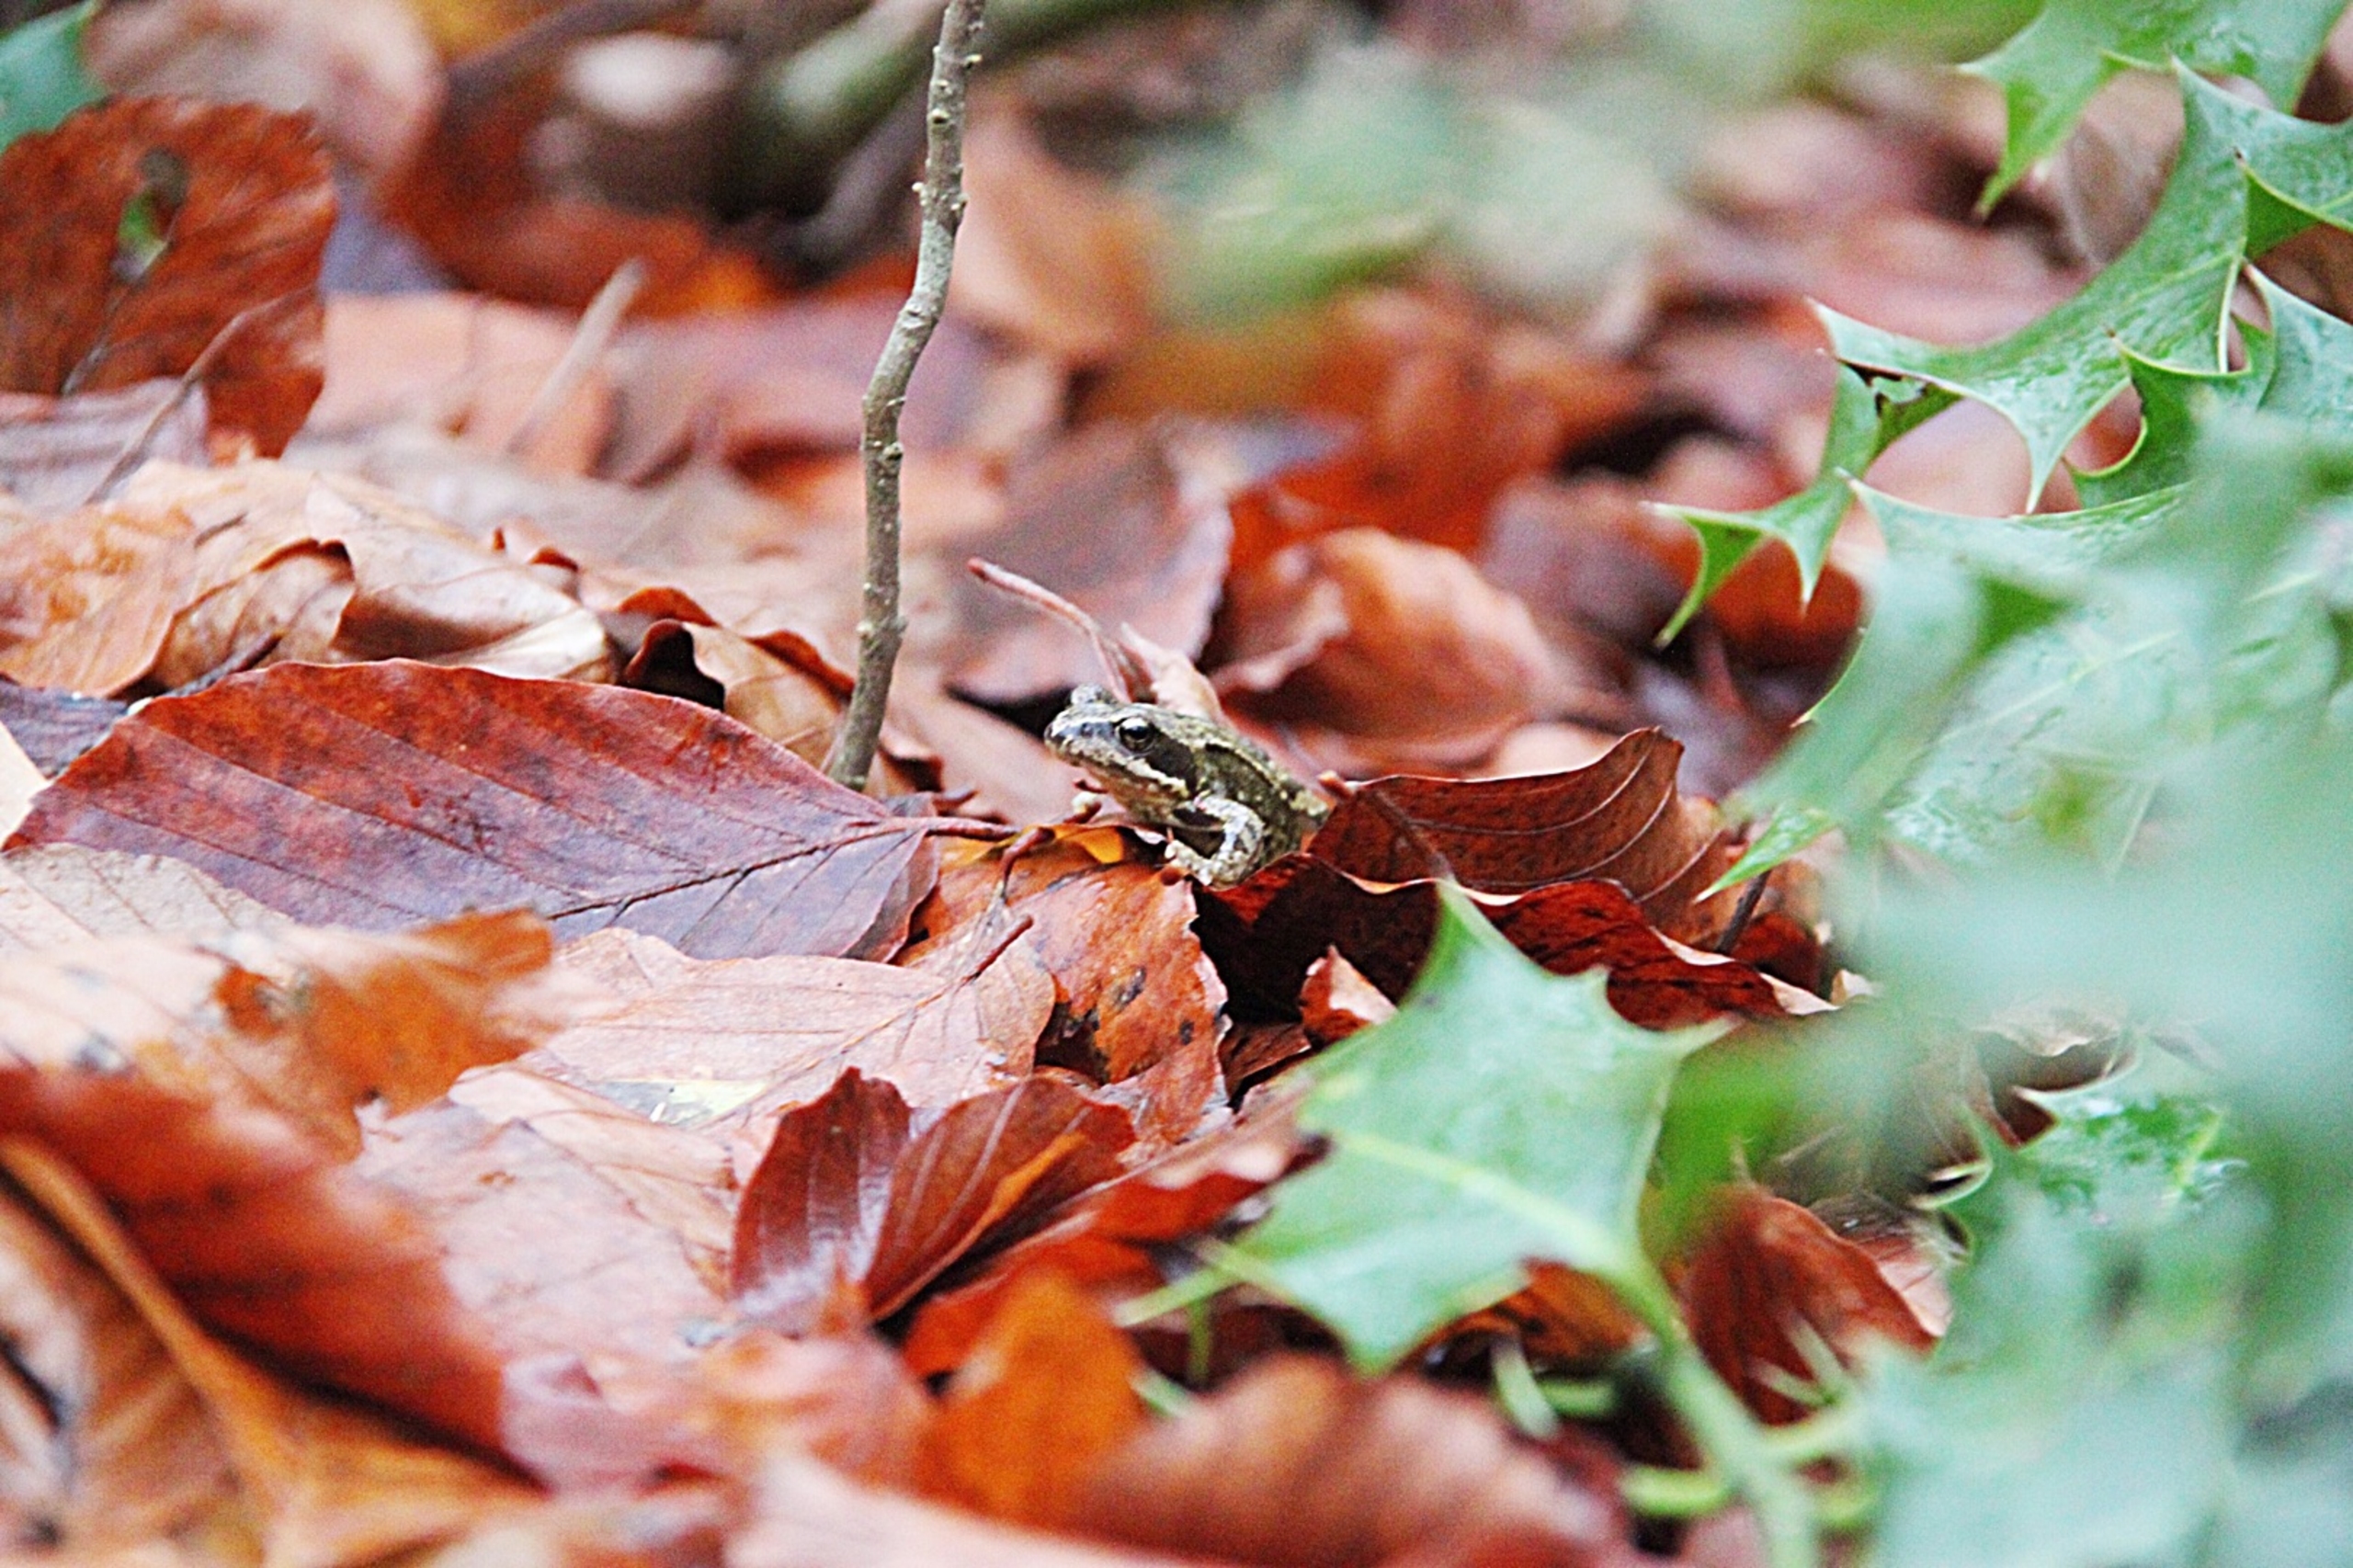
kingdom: Animalia
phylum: Chordata
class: Amphibia
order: Anura
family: Ranidae
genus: Rana
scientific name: Rana temporaria
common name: Butsnudet frø
